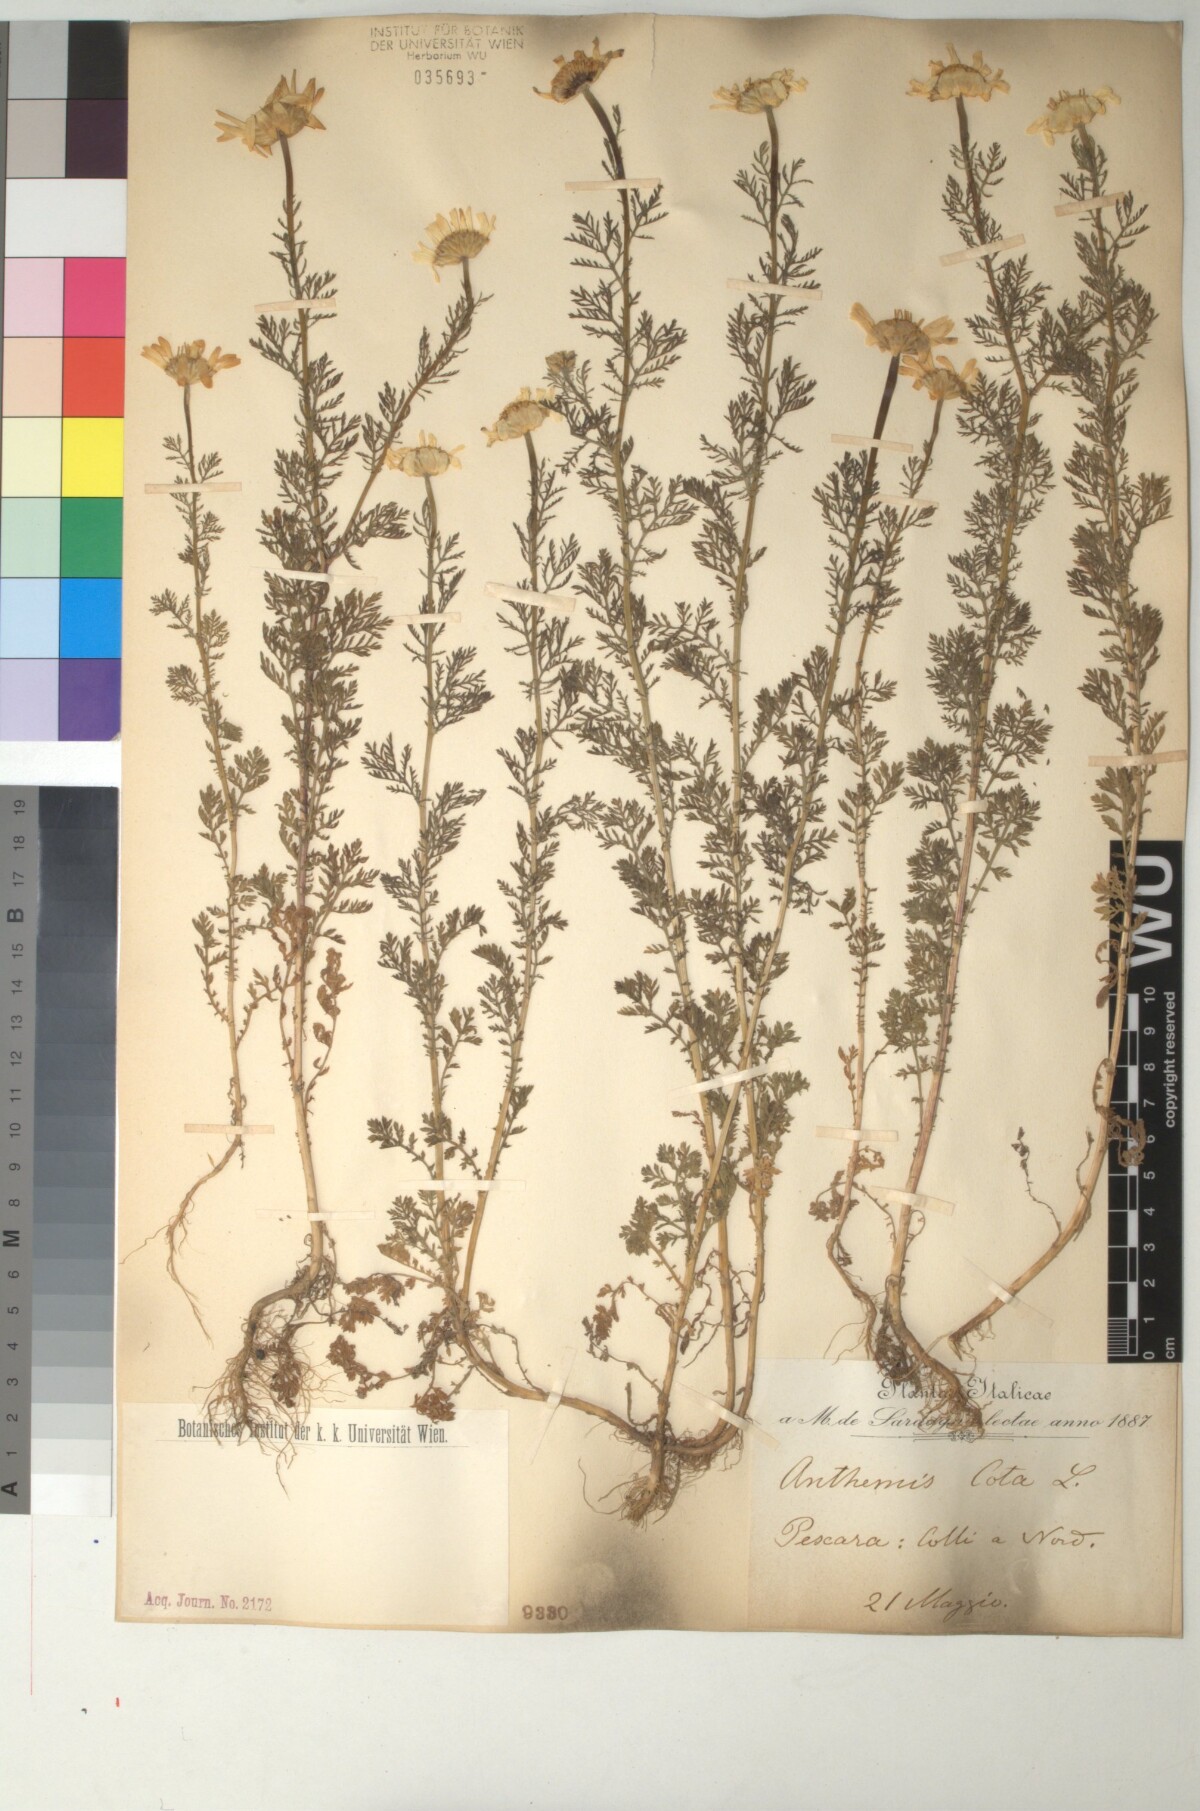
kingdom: Plantae
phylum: Tracheophyta
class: Magnoliopsida
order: Asterales
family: Asteraceae
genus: Cota
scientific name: Cota altissima
